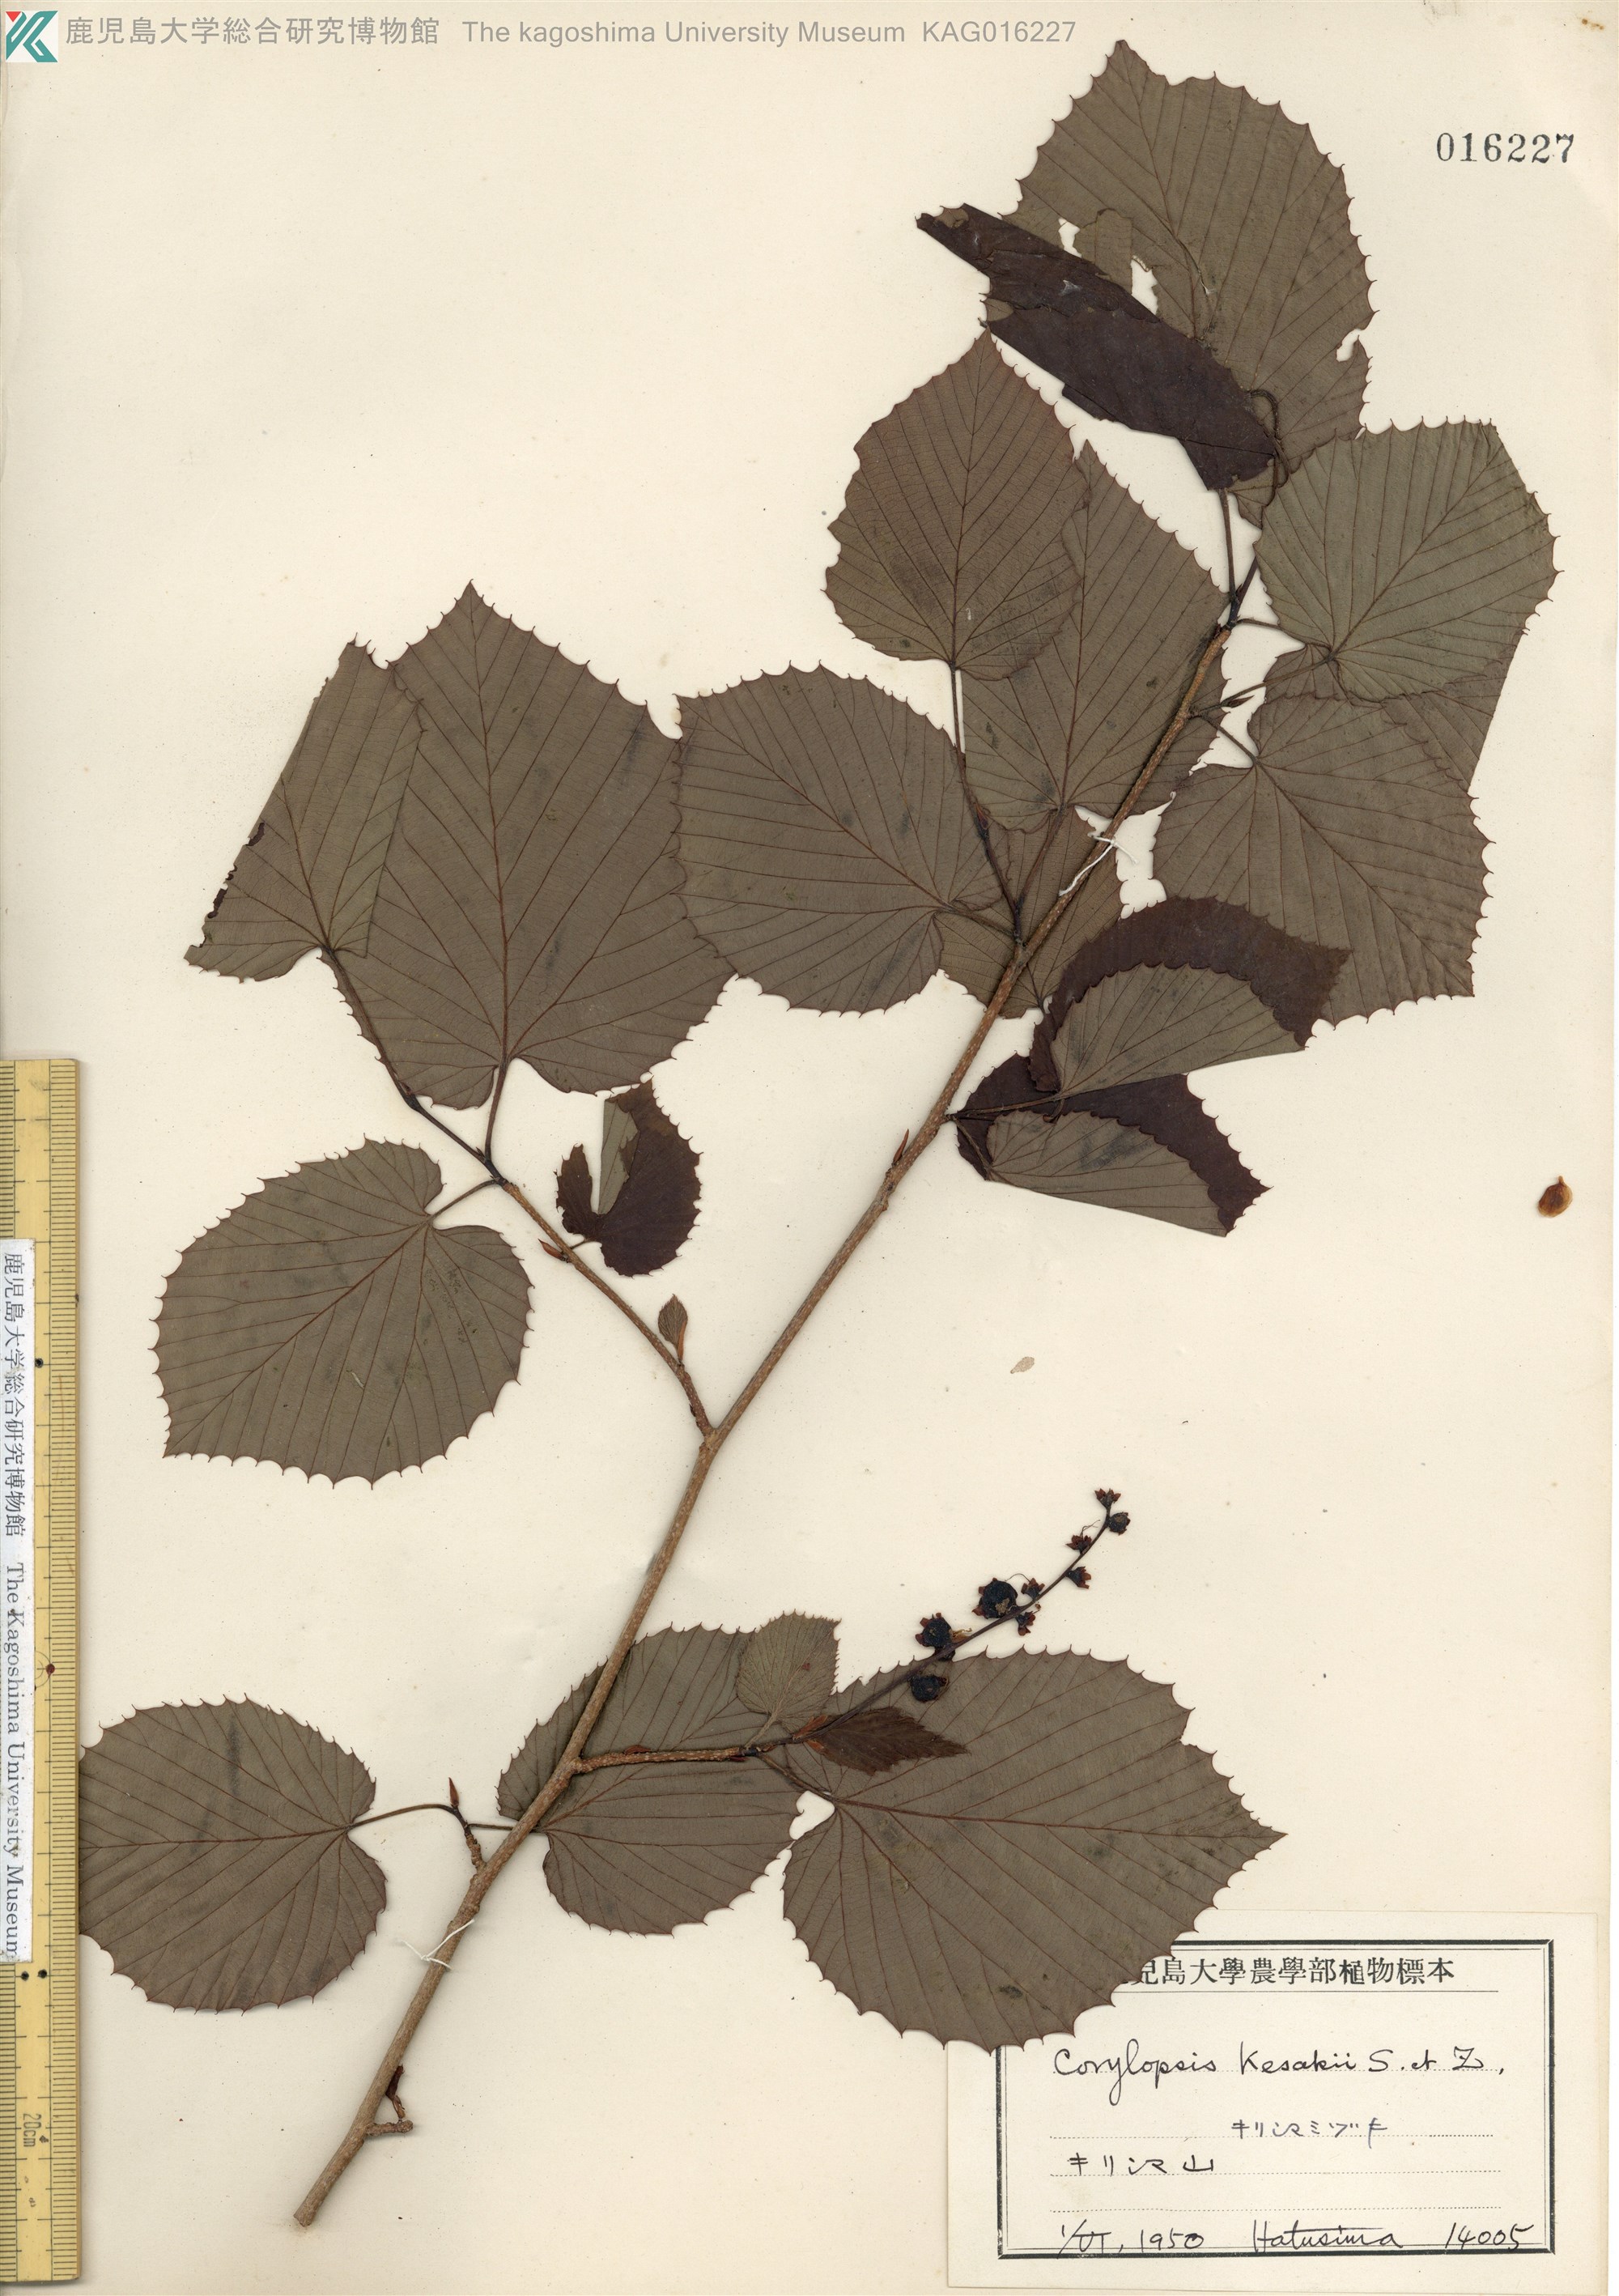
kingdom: Plantae
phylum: Tracheophyta
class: Magnoliopsida
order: Saxifragales
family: Hamamelidaceae
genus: Corylopsis
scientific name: Corylopsis glabrescens
